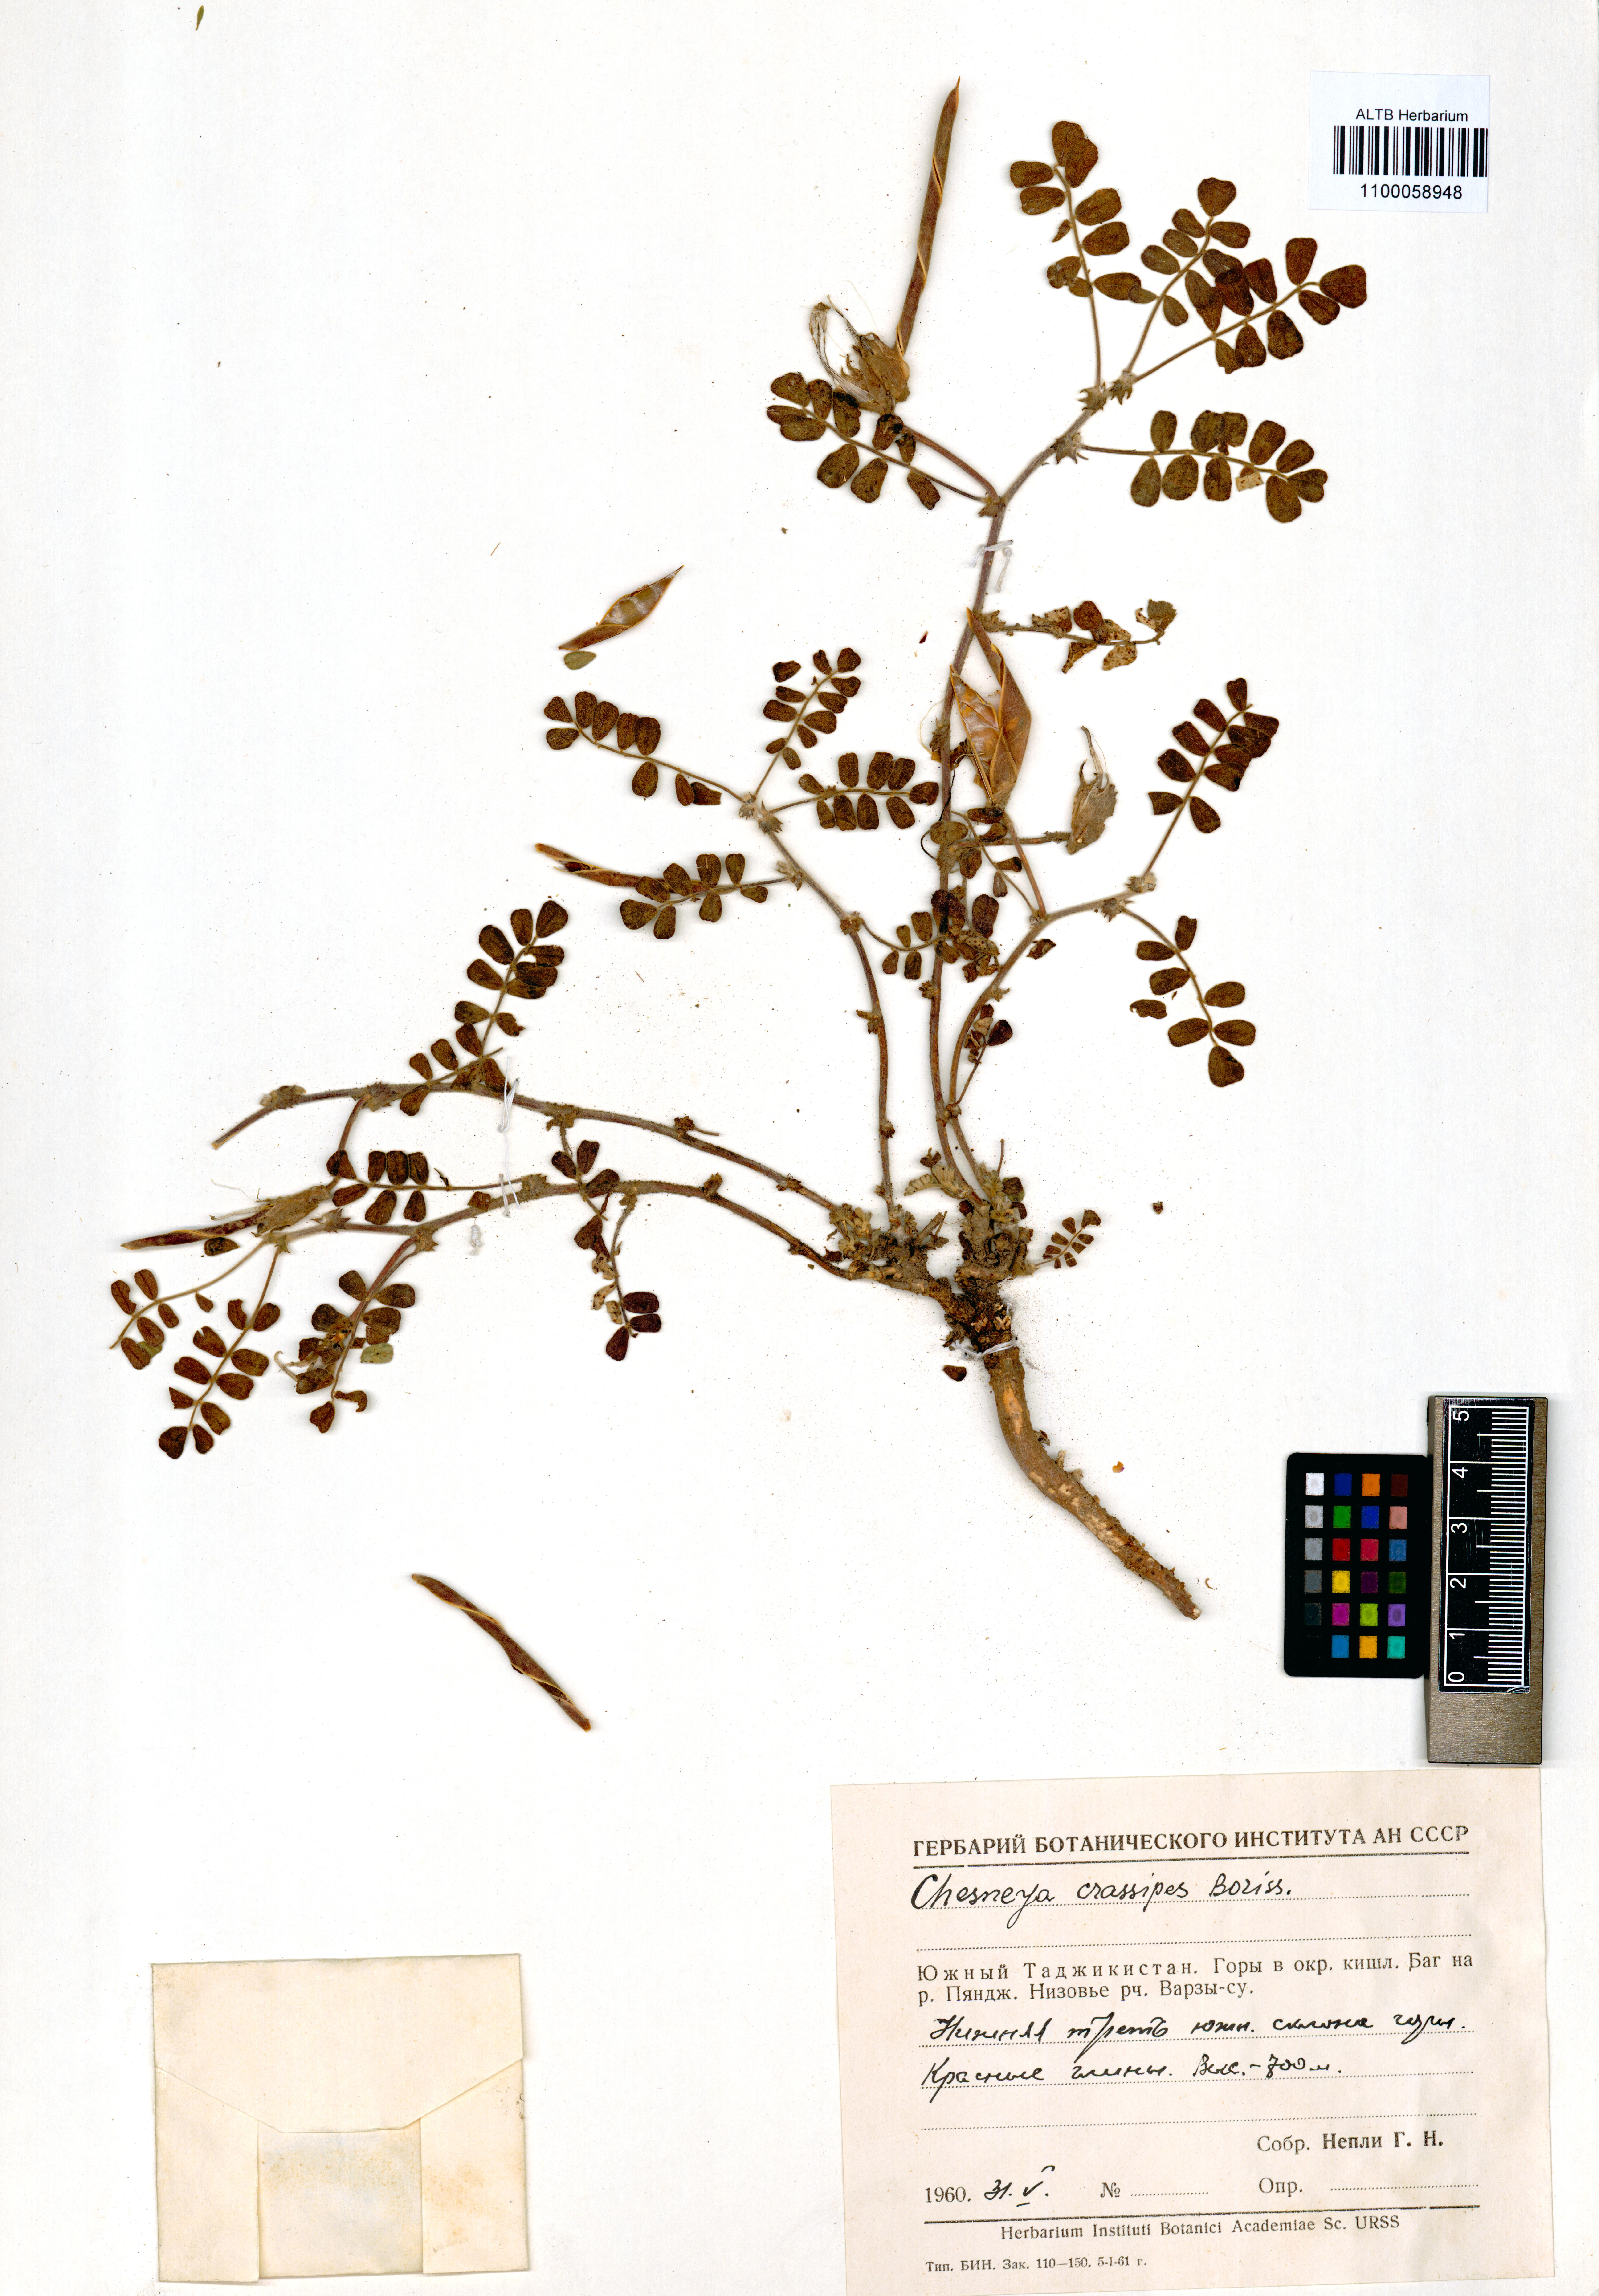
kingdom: Plantae
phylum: Tracheophyta
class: Magnoliopsida
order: Fabales
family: Fabaceae
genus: Chesneya
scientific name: Chesneya crassipes
